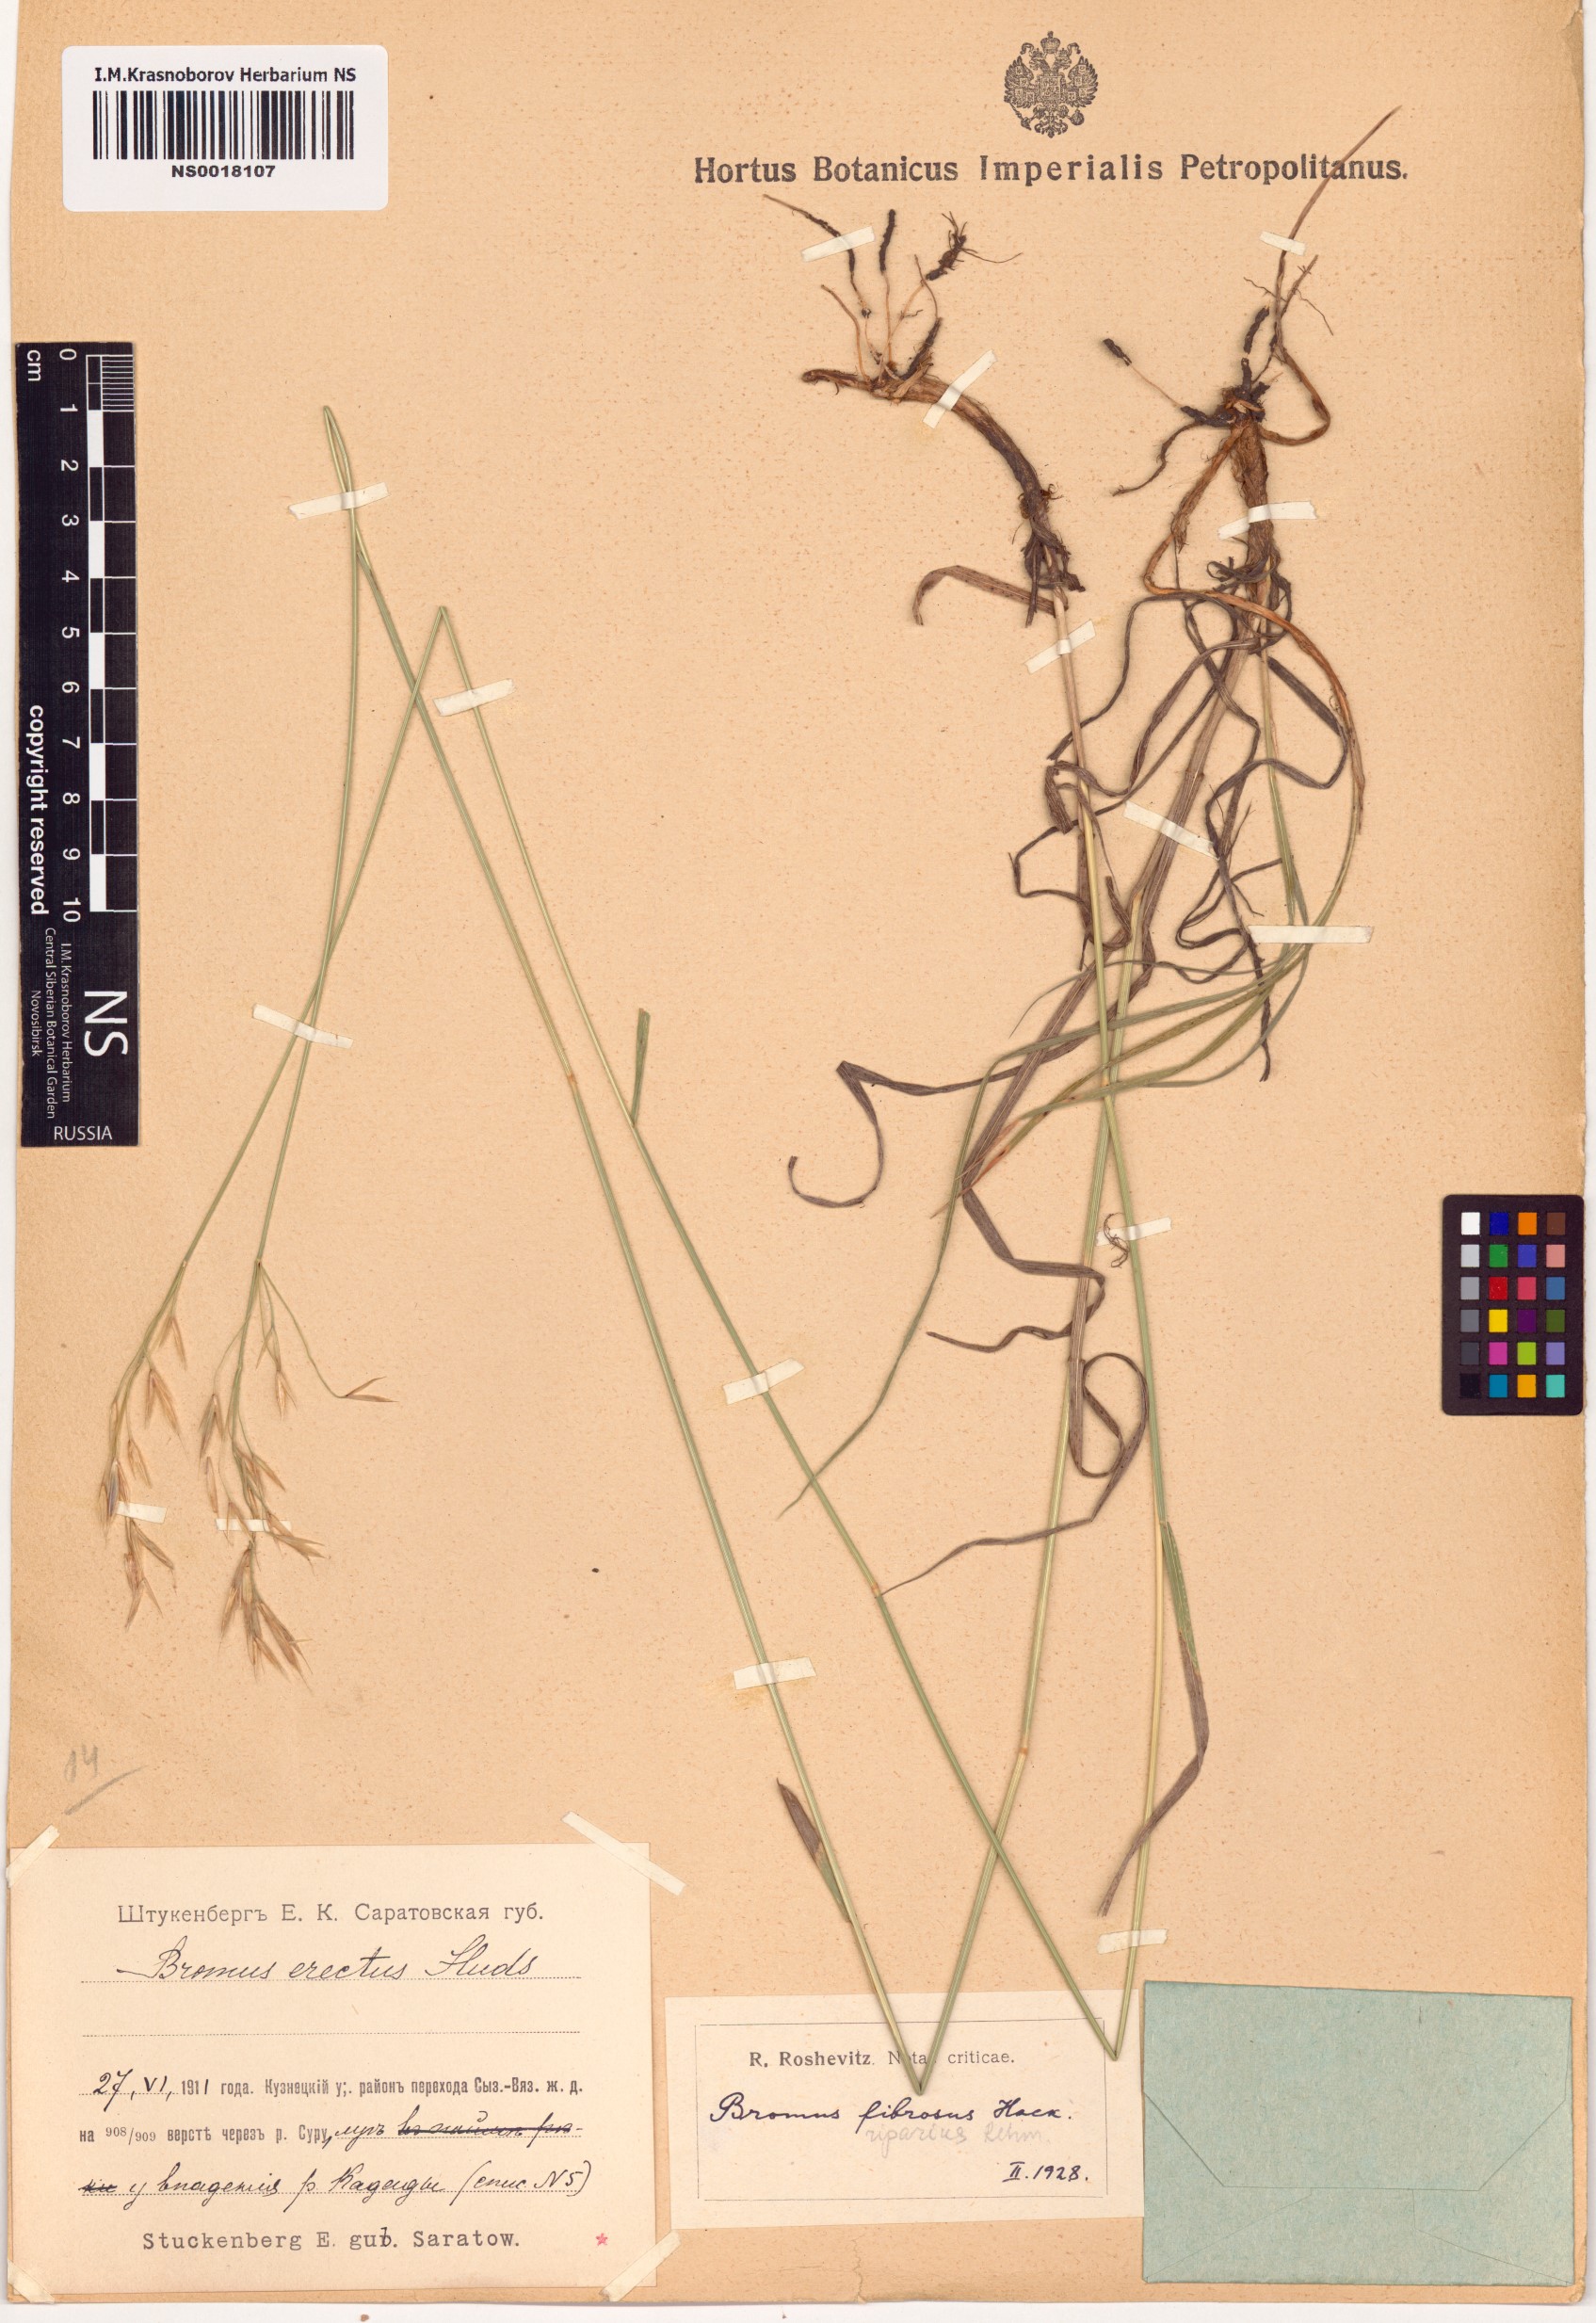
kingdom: Plantae
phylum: Tracheophyta
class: Liliopsida
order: Poales
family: Poaceae
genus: Bromus
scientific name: Bromus riparius
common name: Meadow brome
